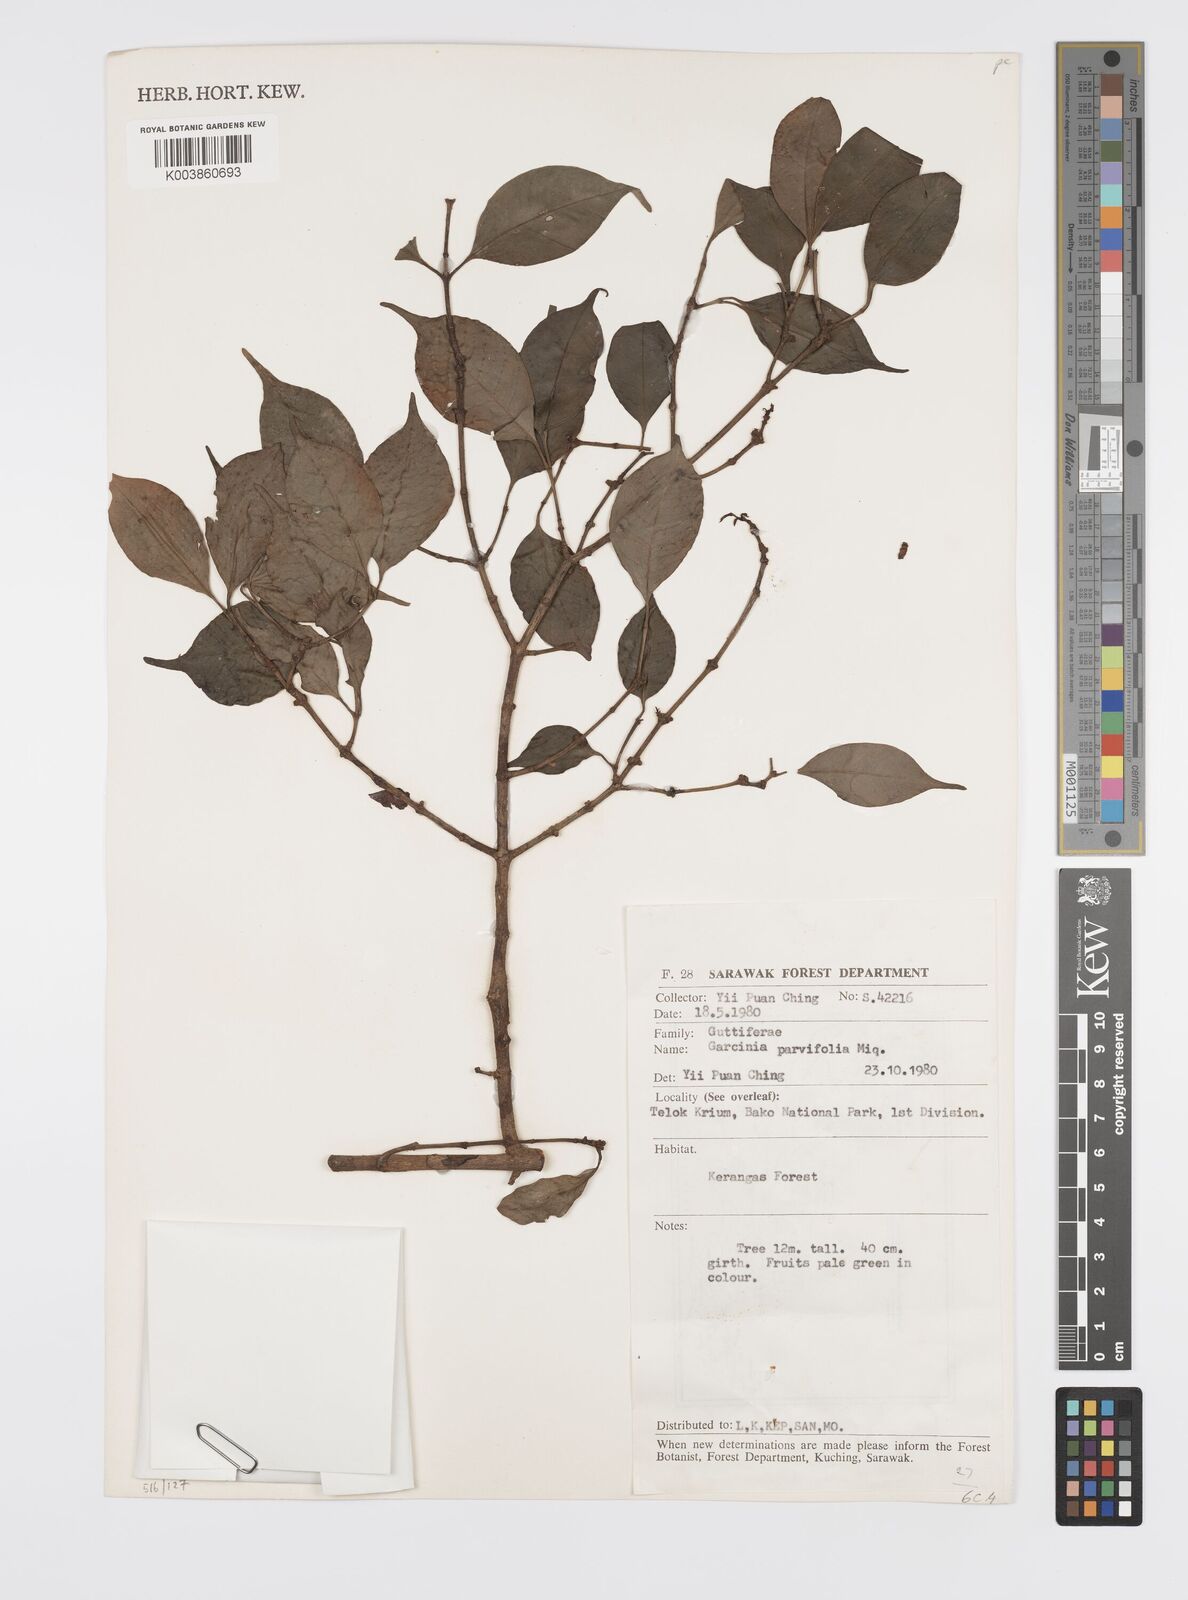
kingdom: Plantae
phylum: Tracheophyta
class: Magnoliopsida
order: Malpighiales
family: Clusiaceae
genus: Garcinia
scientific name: Garcinia parvifolia
